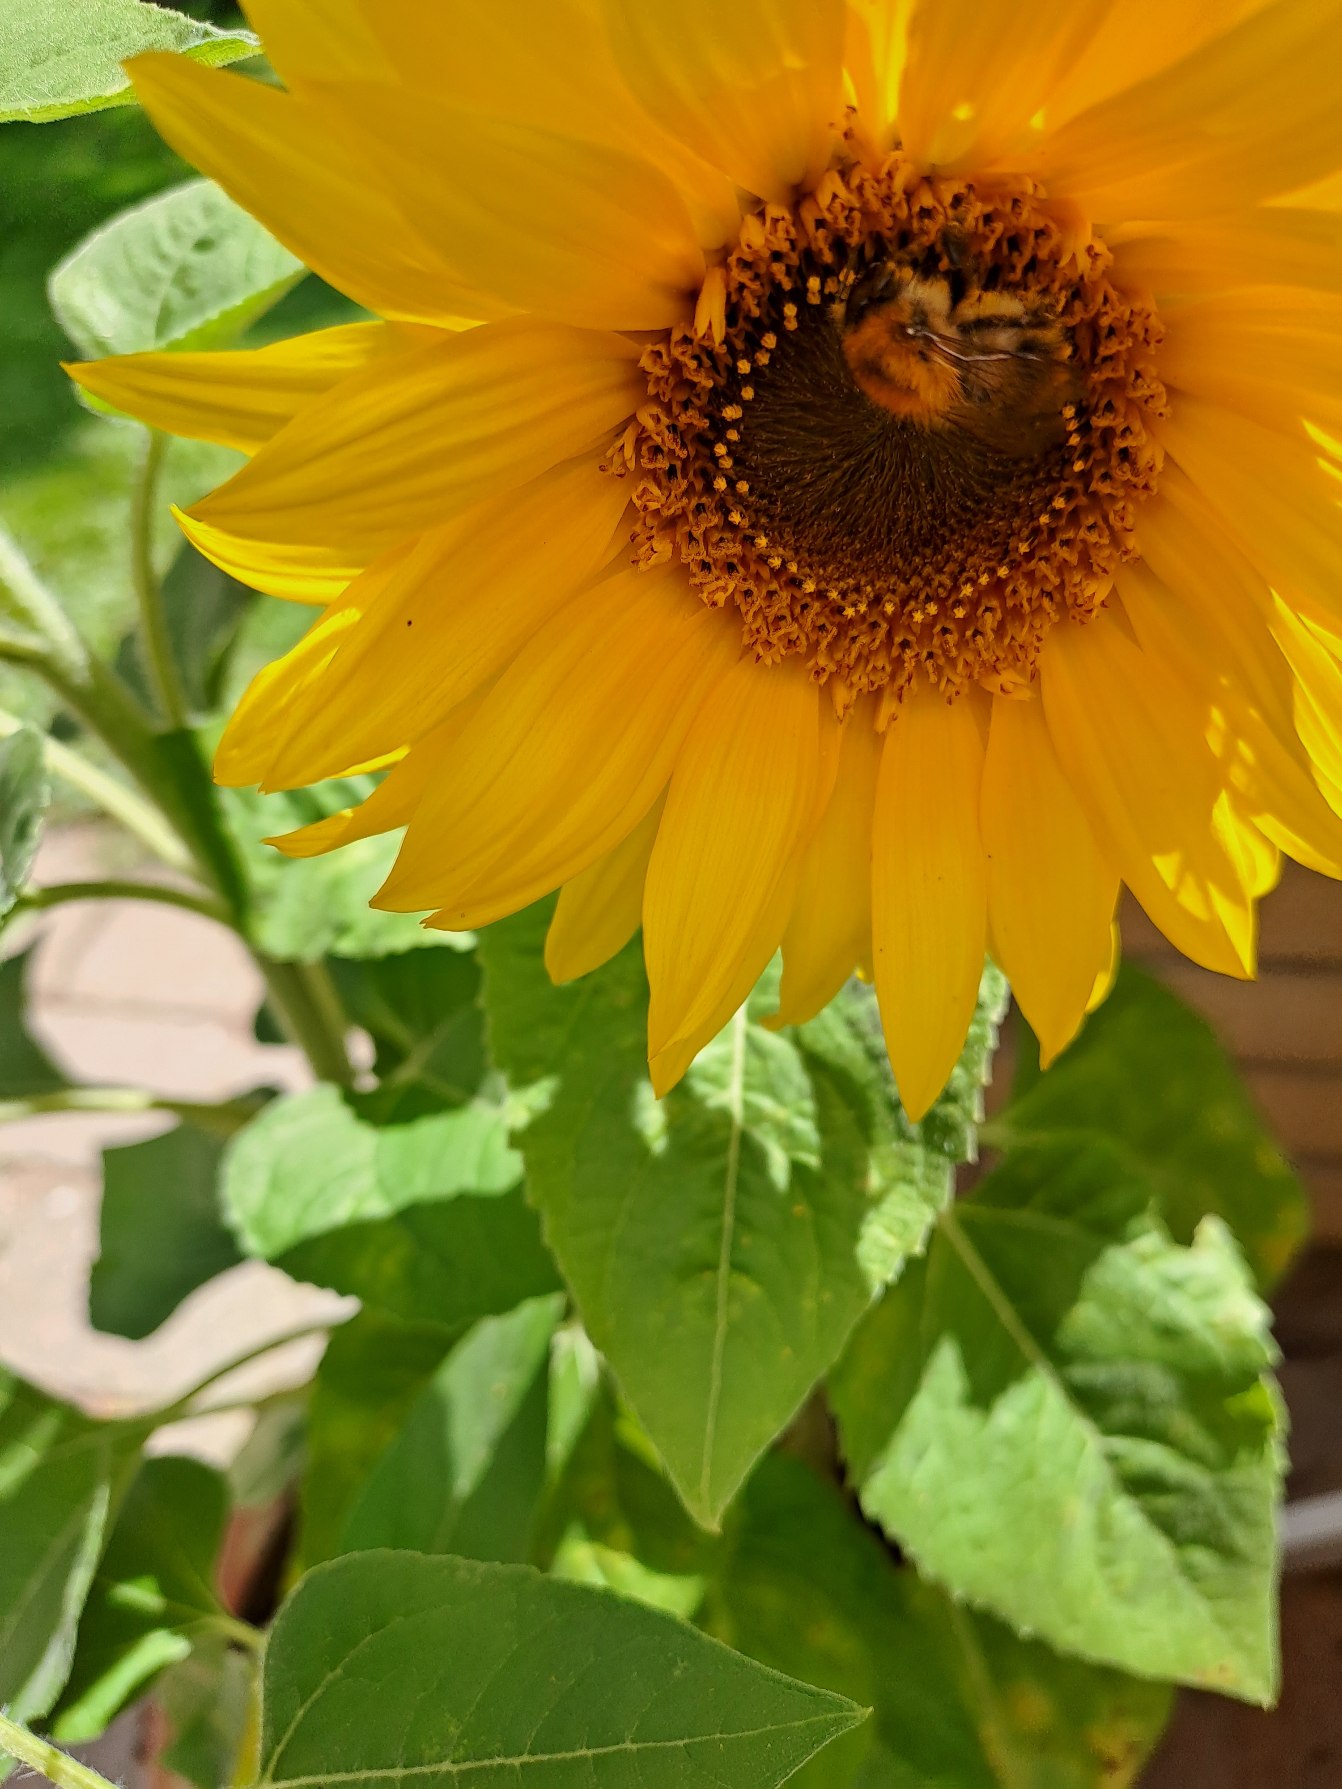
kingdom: Plantae
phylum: Tracheophyta
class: Magnoliopsida
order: Asterales
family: Asteraceae
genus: Helianthus
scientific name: Helianthus annuus
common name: Solsikke
